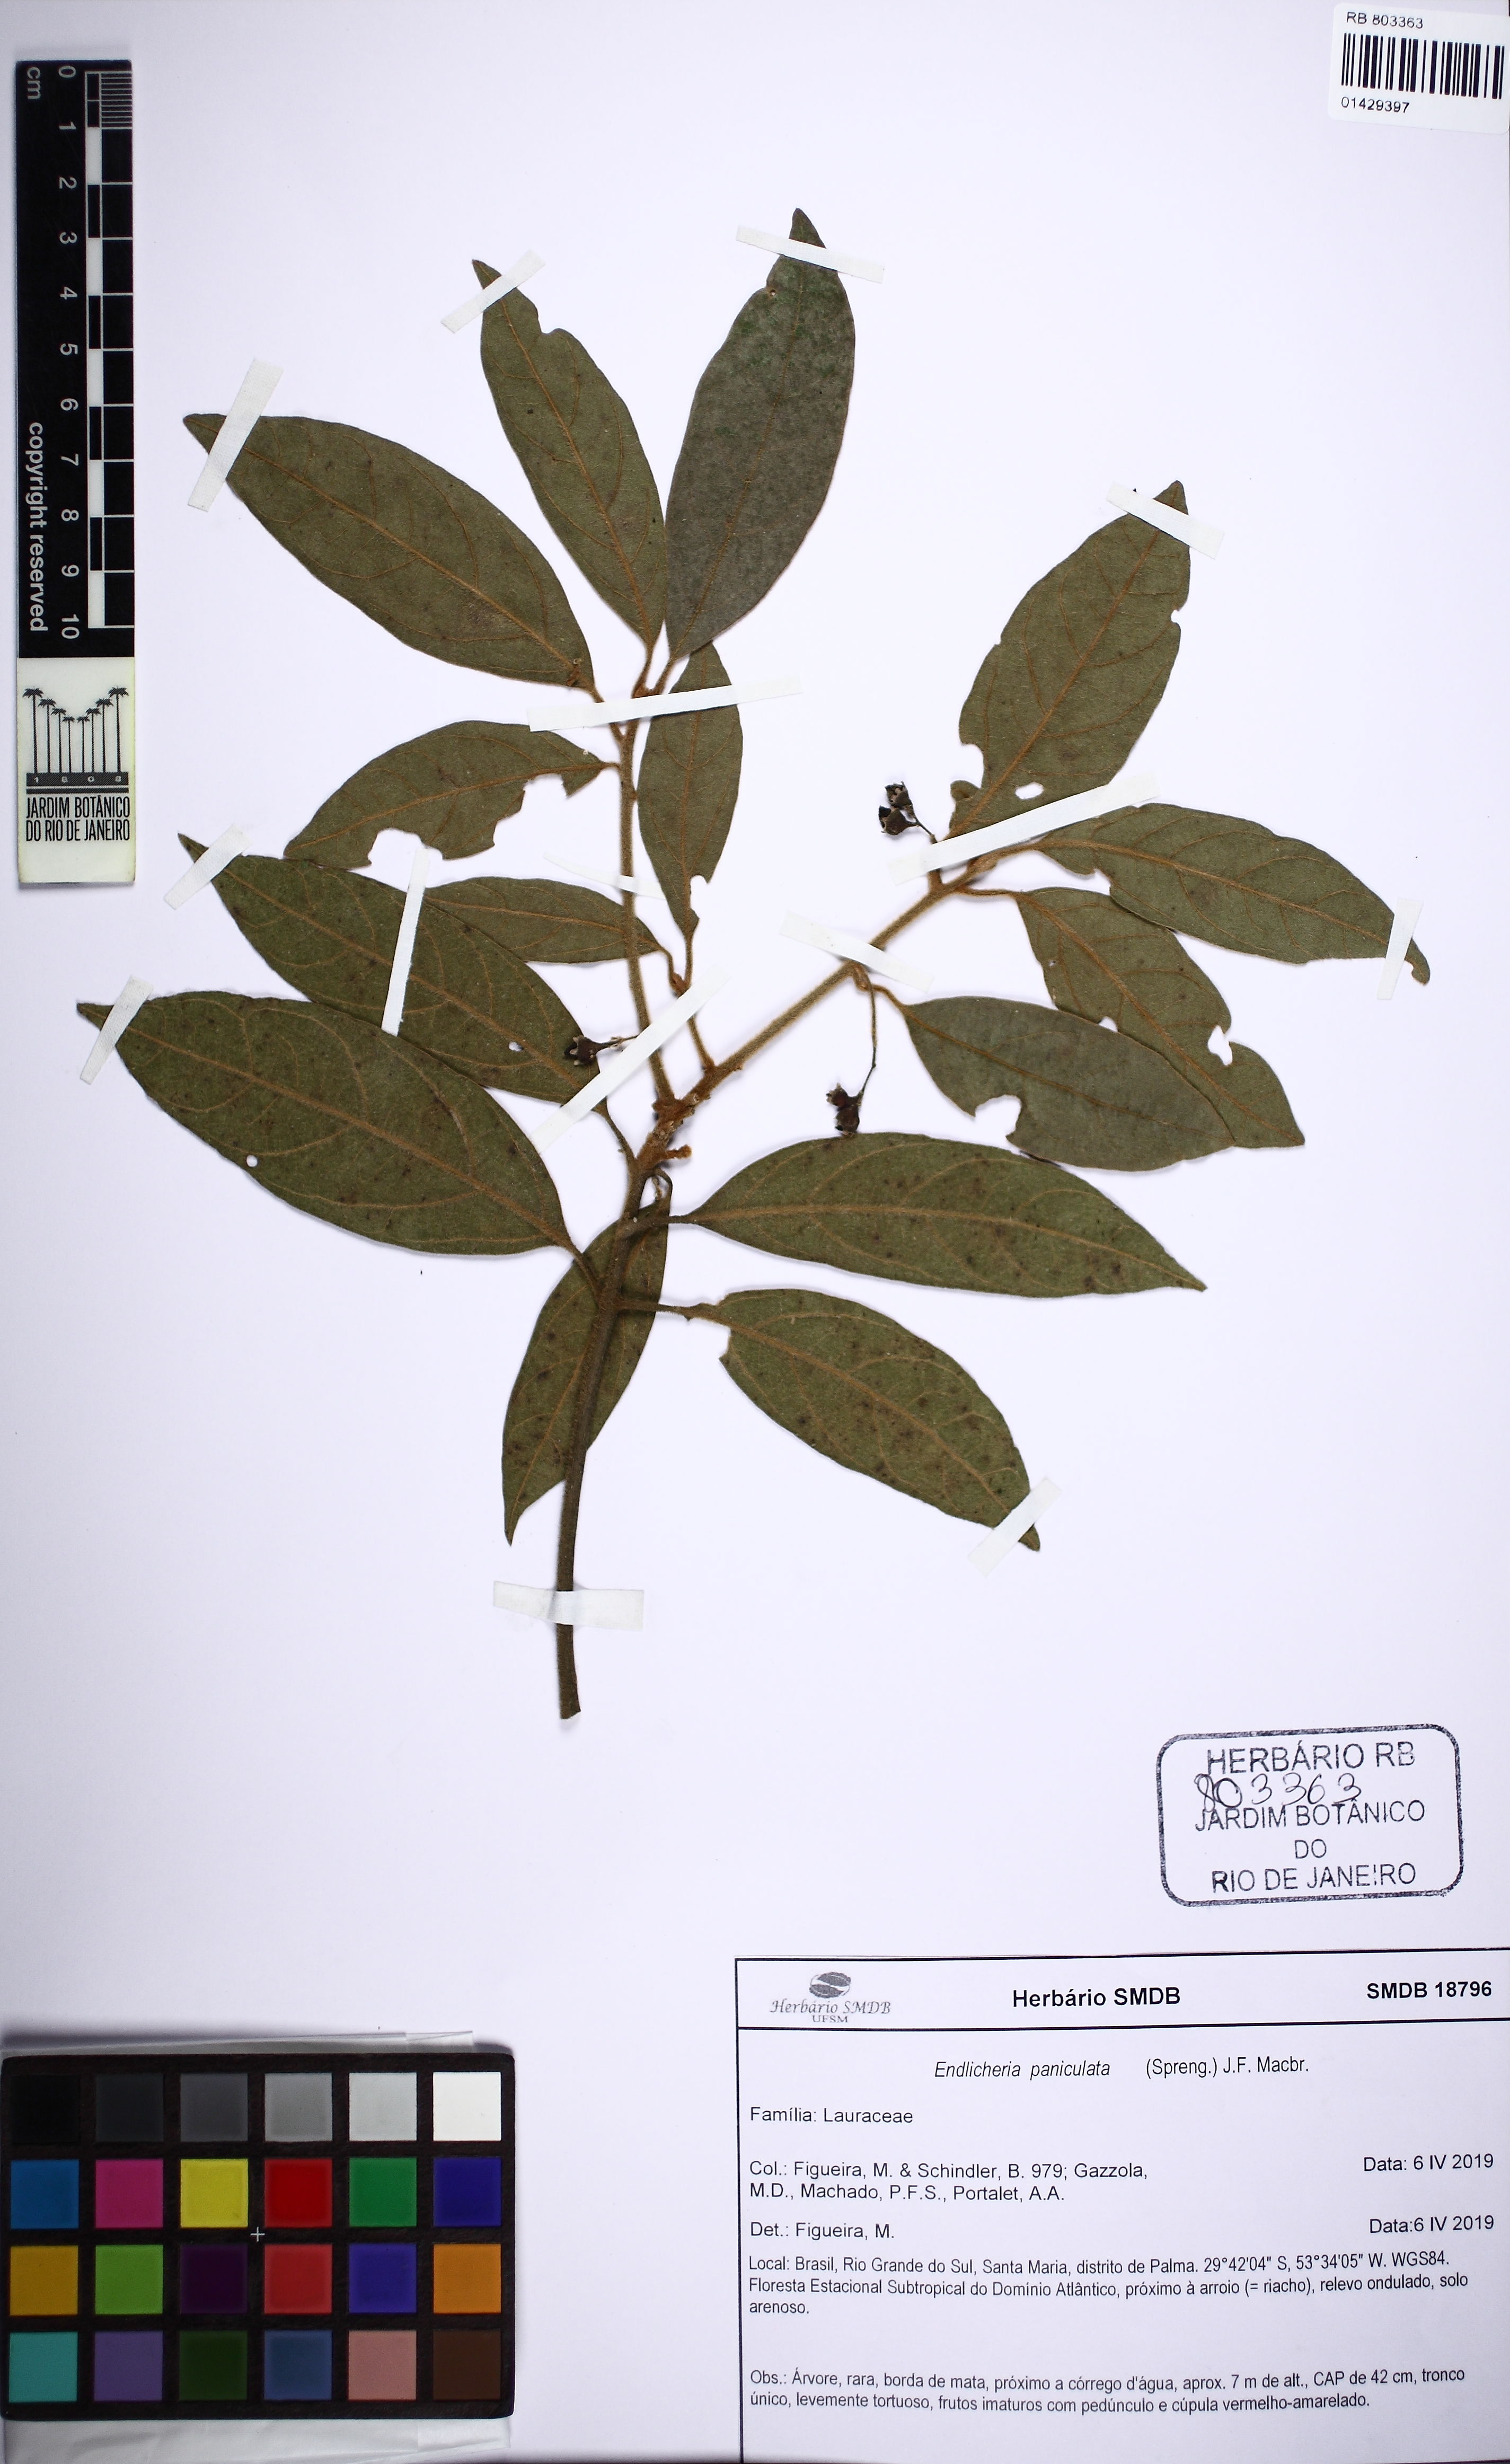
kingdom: Plantae
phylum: Tracheophyta
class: Magnoliopsida
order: Laurales
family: Lauraceae
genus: Endlicheria
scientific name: Endlicheria paniculata
